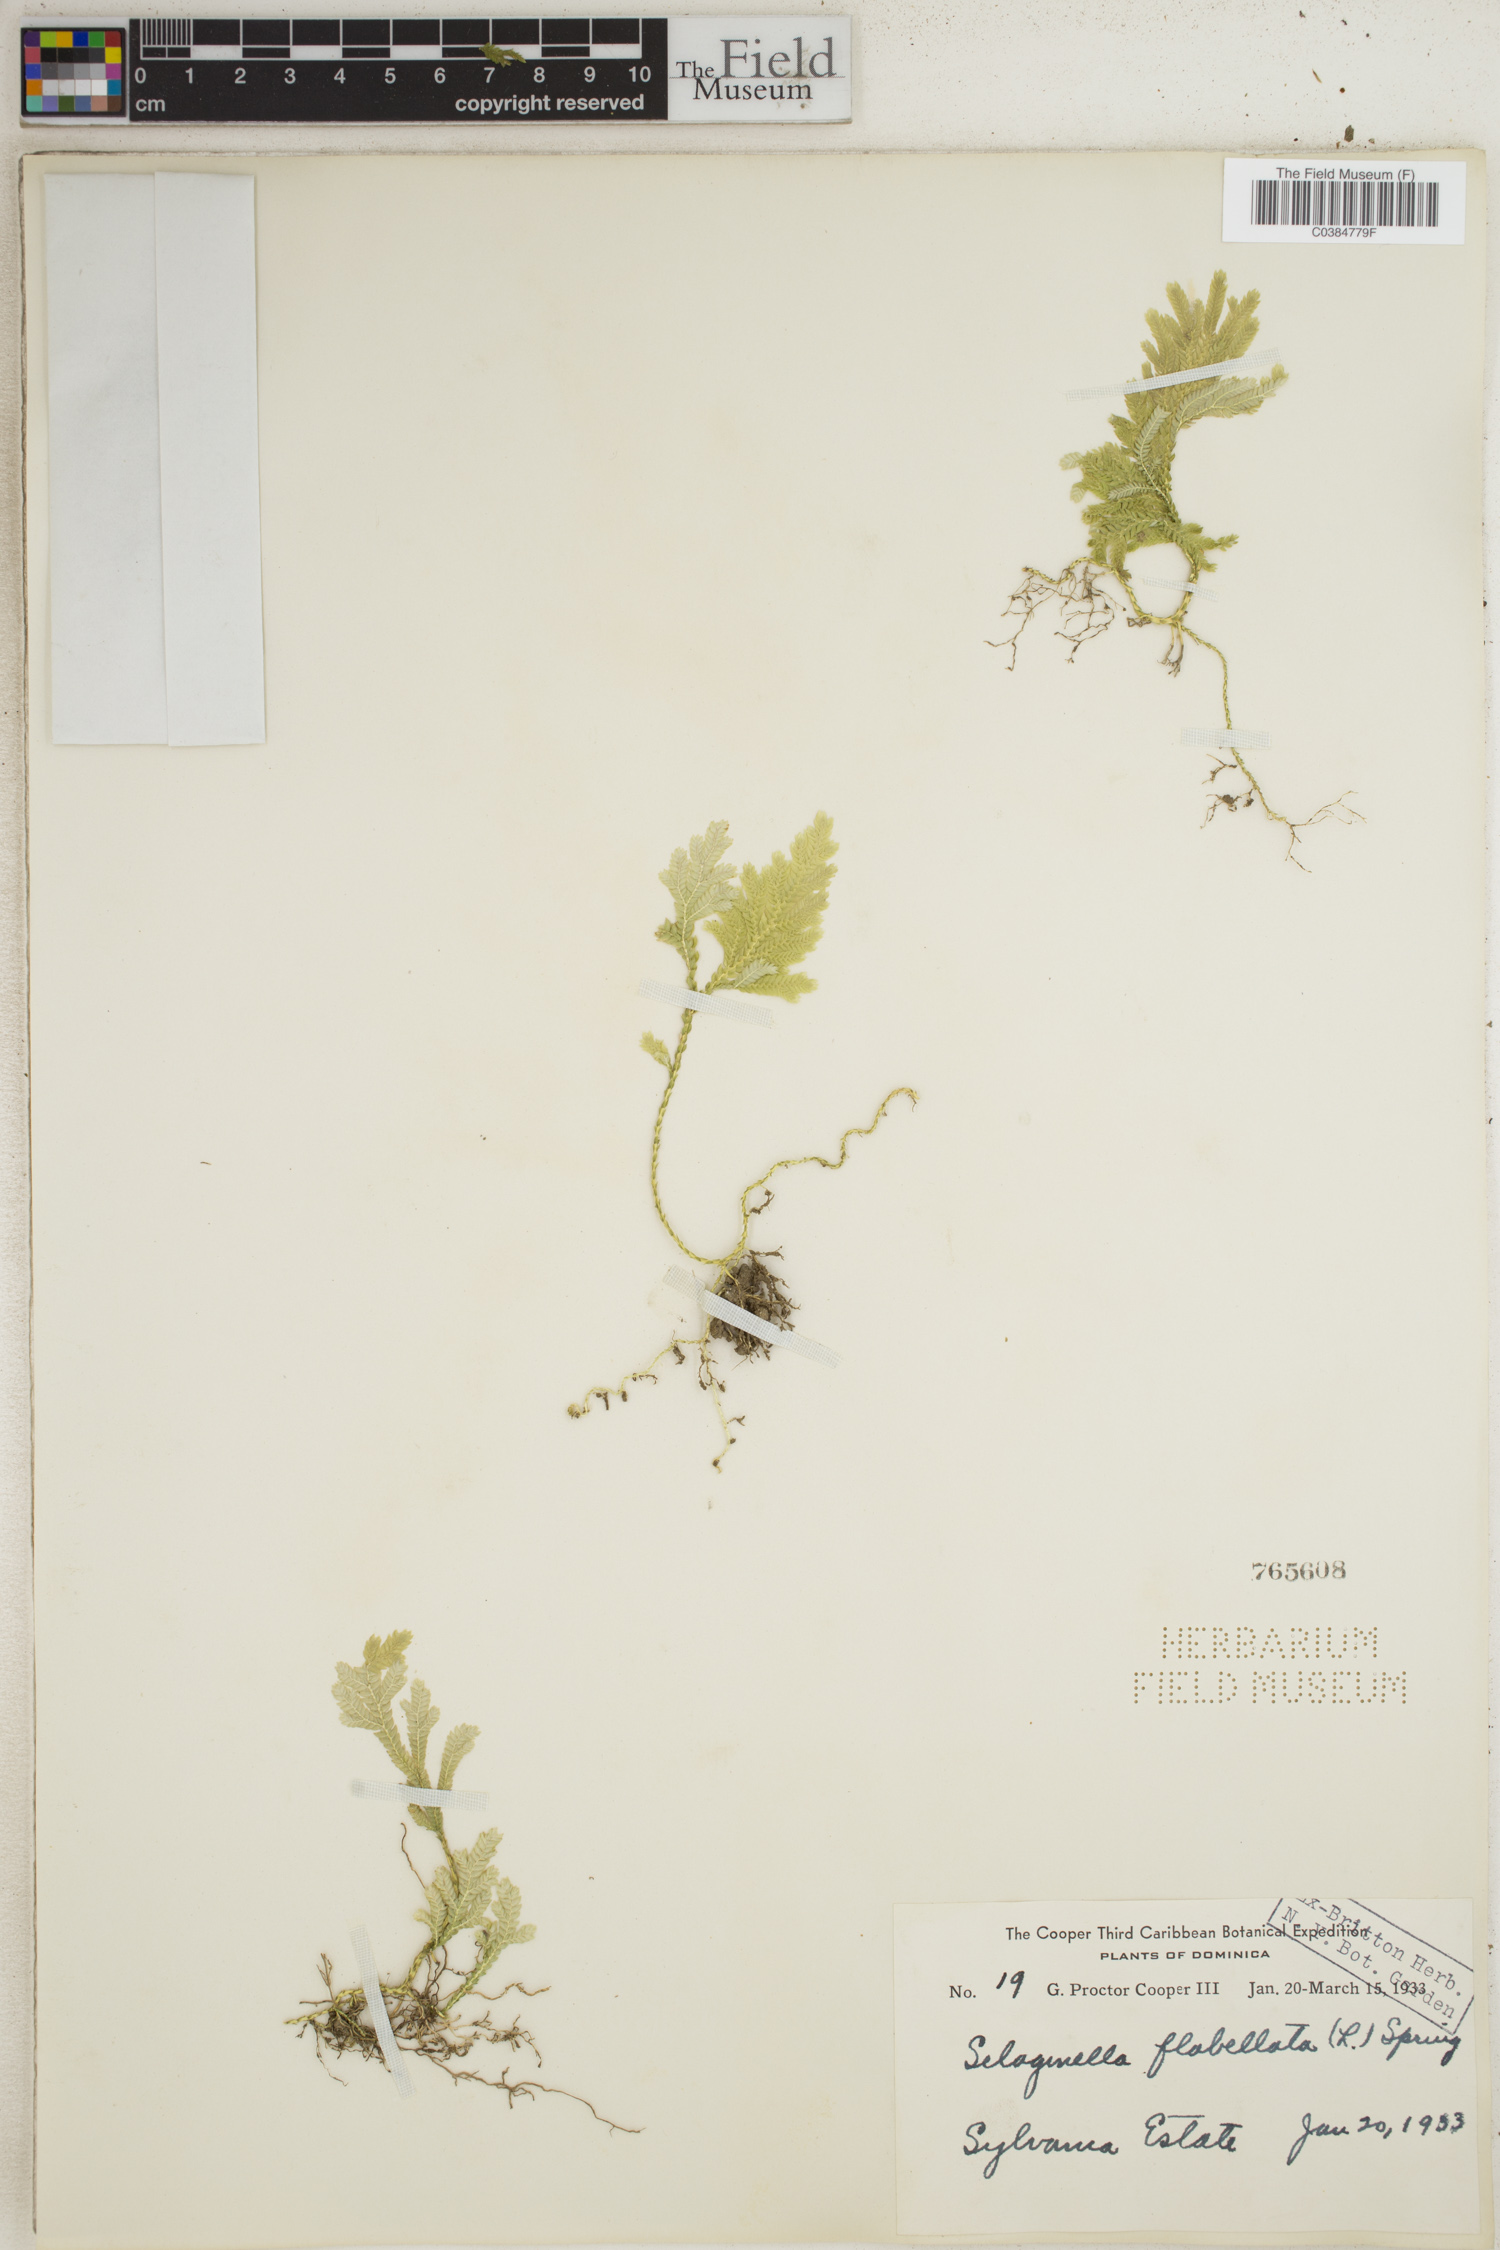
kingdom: Plantae
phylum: Tracheophyta
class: Lycopodiopsida
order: Selaginellales
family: Selaginellaceae
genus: Selaginella
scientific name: Selaginella flabellata
